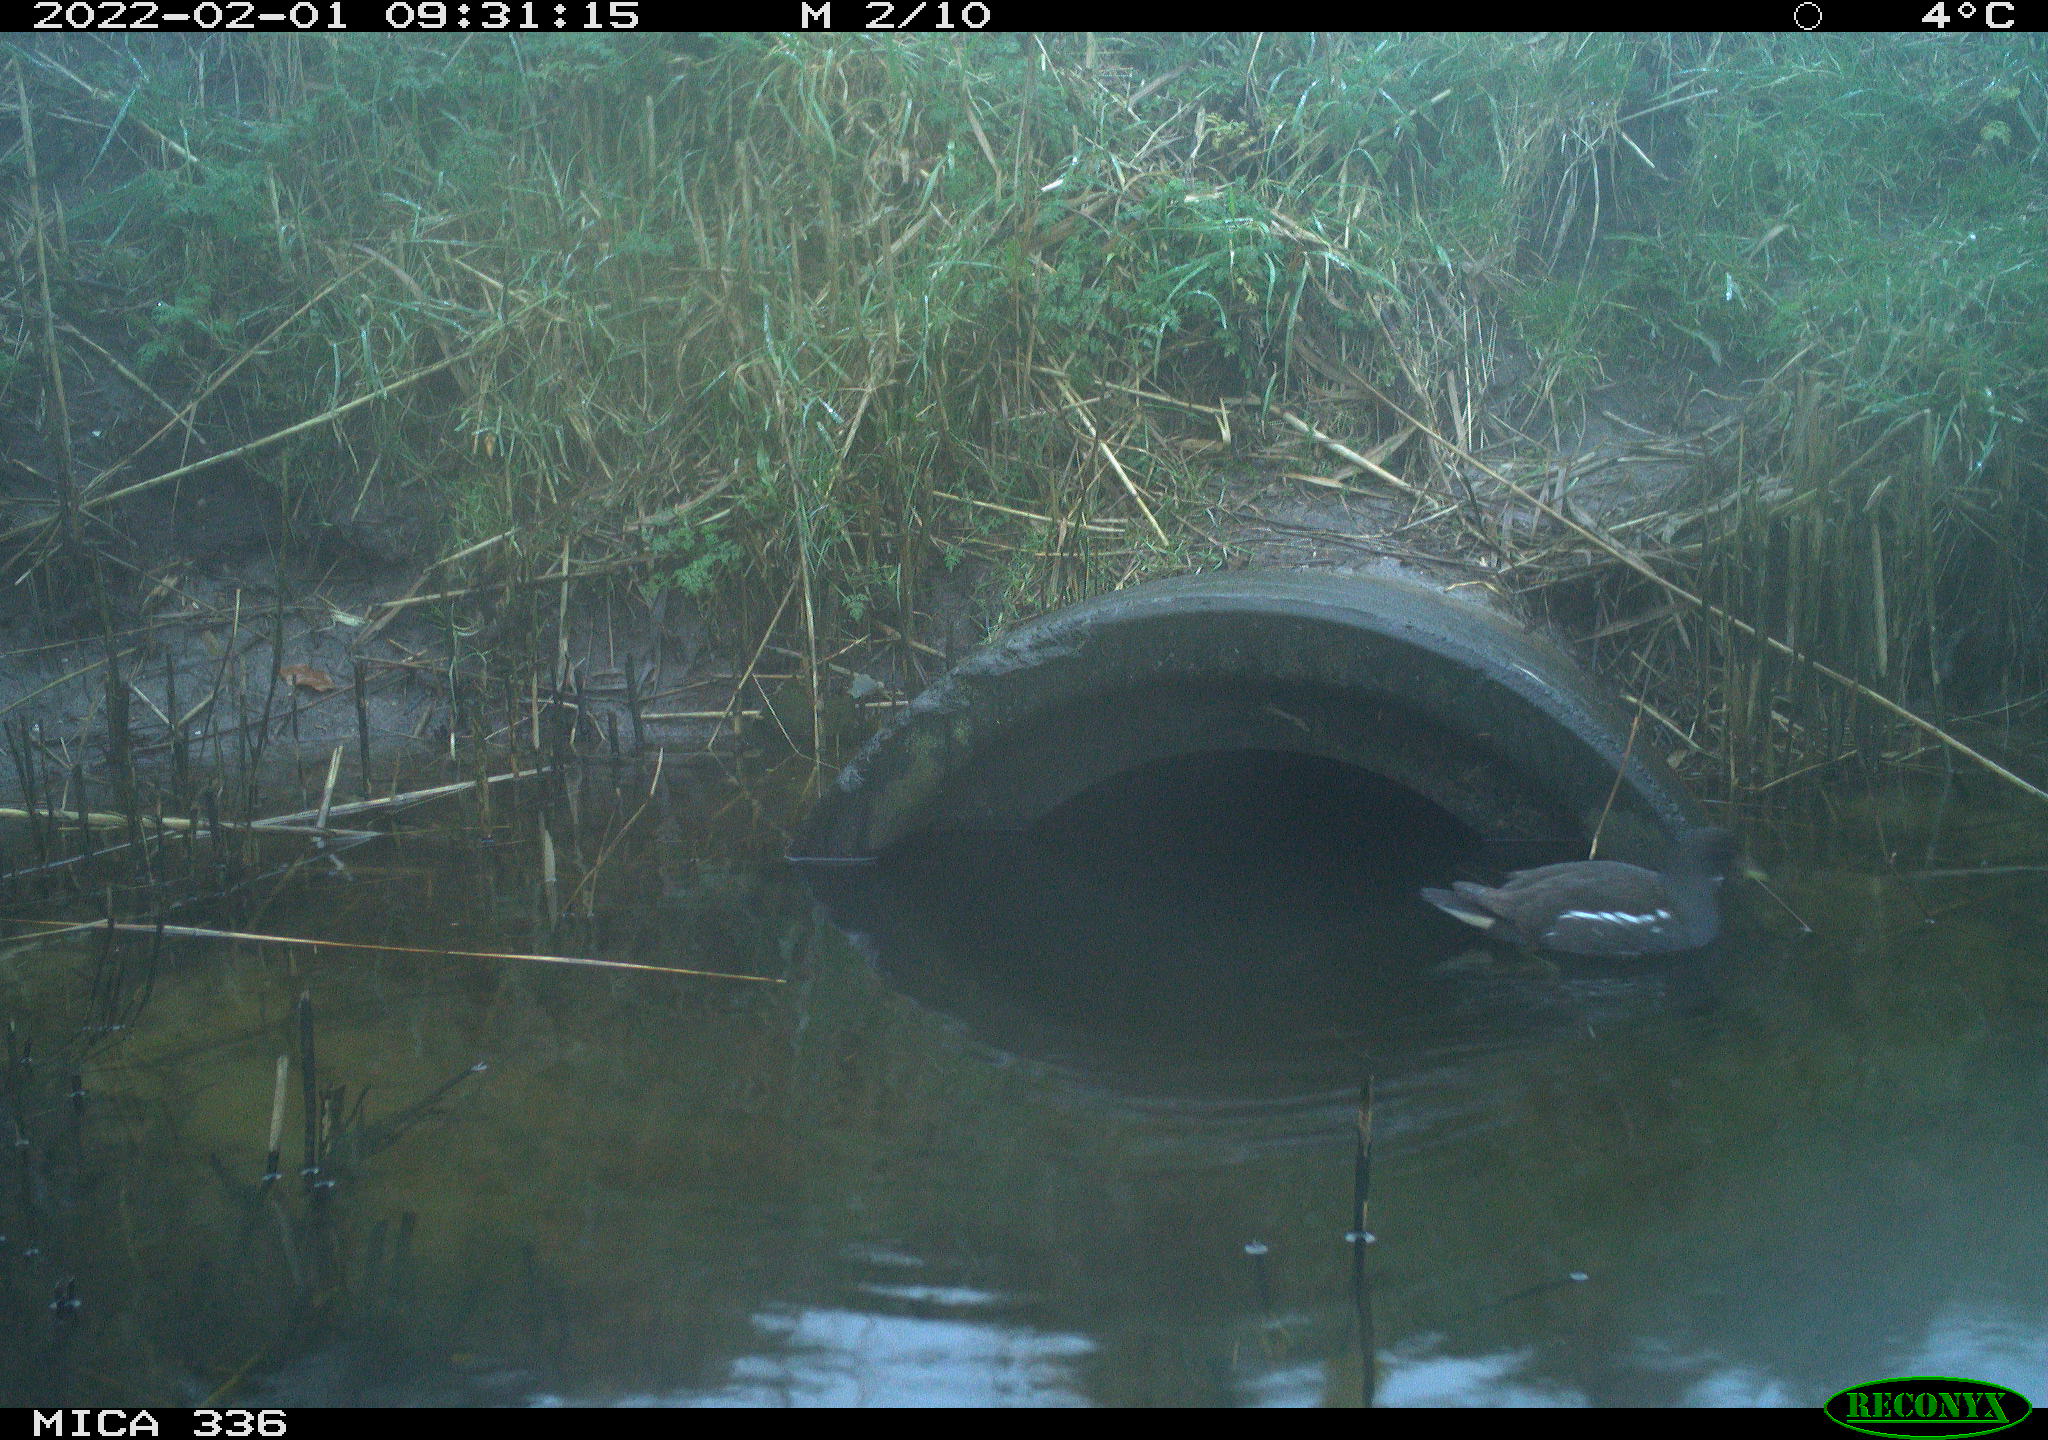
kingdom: Animalia
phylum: Chordata
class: Aves
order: Gruiformes
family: Rallidae
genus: Gallinula
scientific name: Gallinula chloropus
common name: Common moorhen
